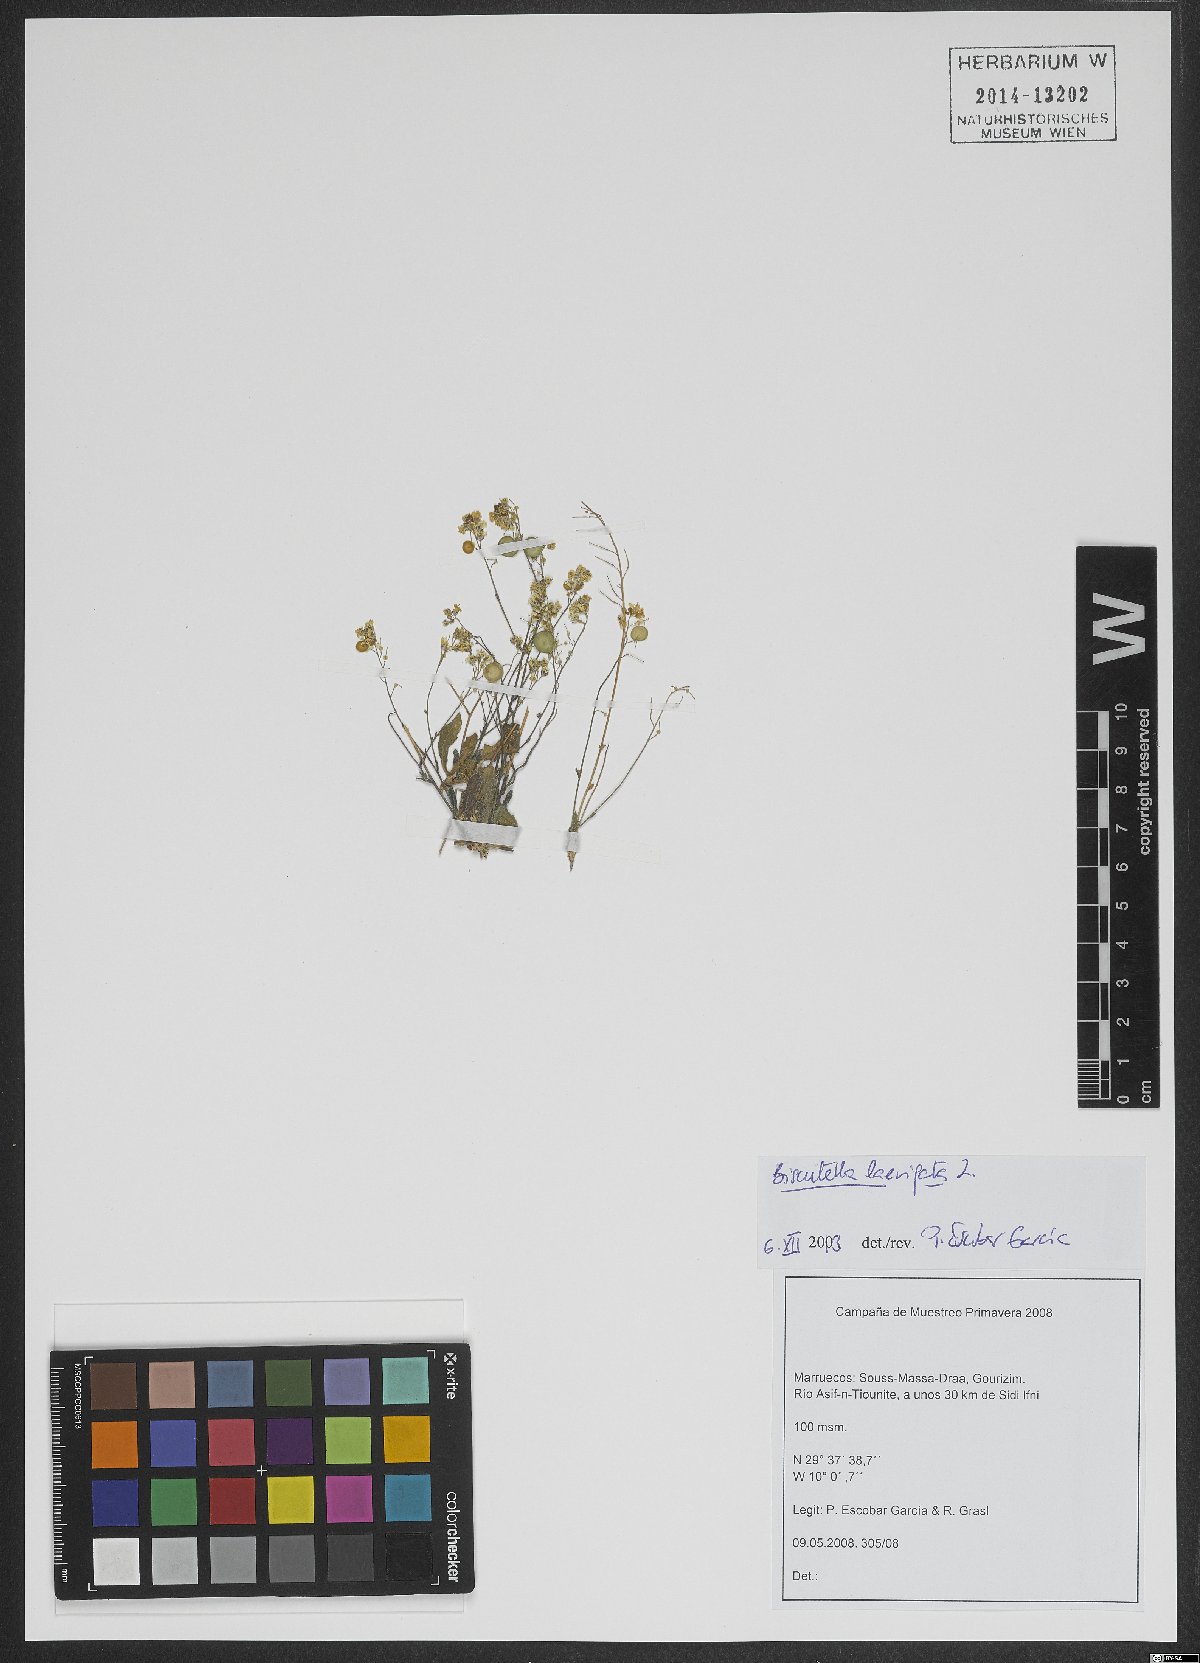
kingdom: Plantae
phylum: Tracheophyta
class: Magnoliopsida
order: Brassicales
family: Brassicaceae
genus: Biscutella
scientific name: Biscutella laevigata
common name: Buckler mustard
